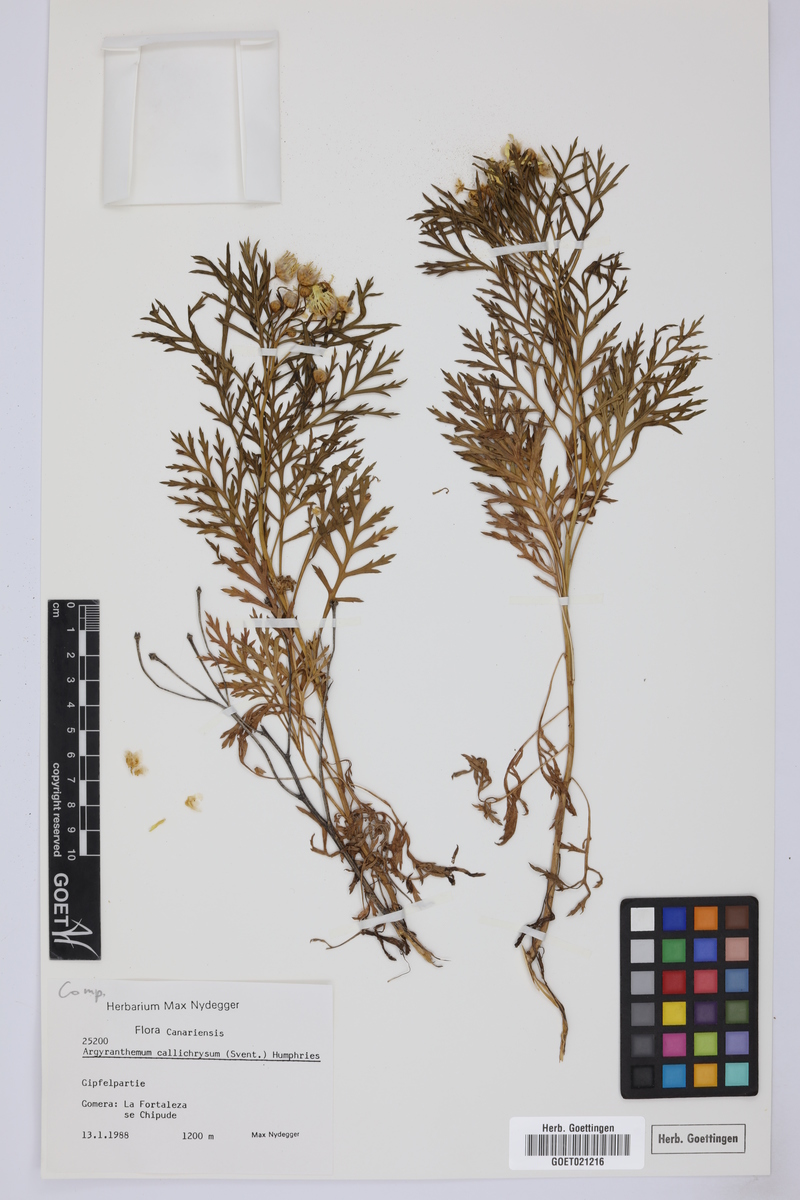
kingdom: Plantae
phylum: Tracheophyta
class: Magnoliopsida
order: Asterales
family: Asteraceae
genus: Argyranthemum
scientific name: Argyranthemum callichrysum
